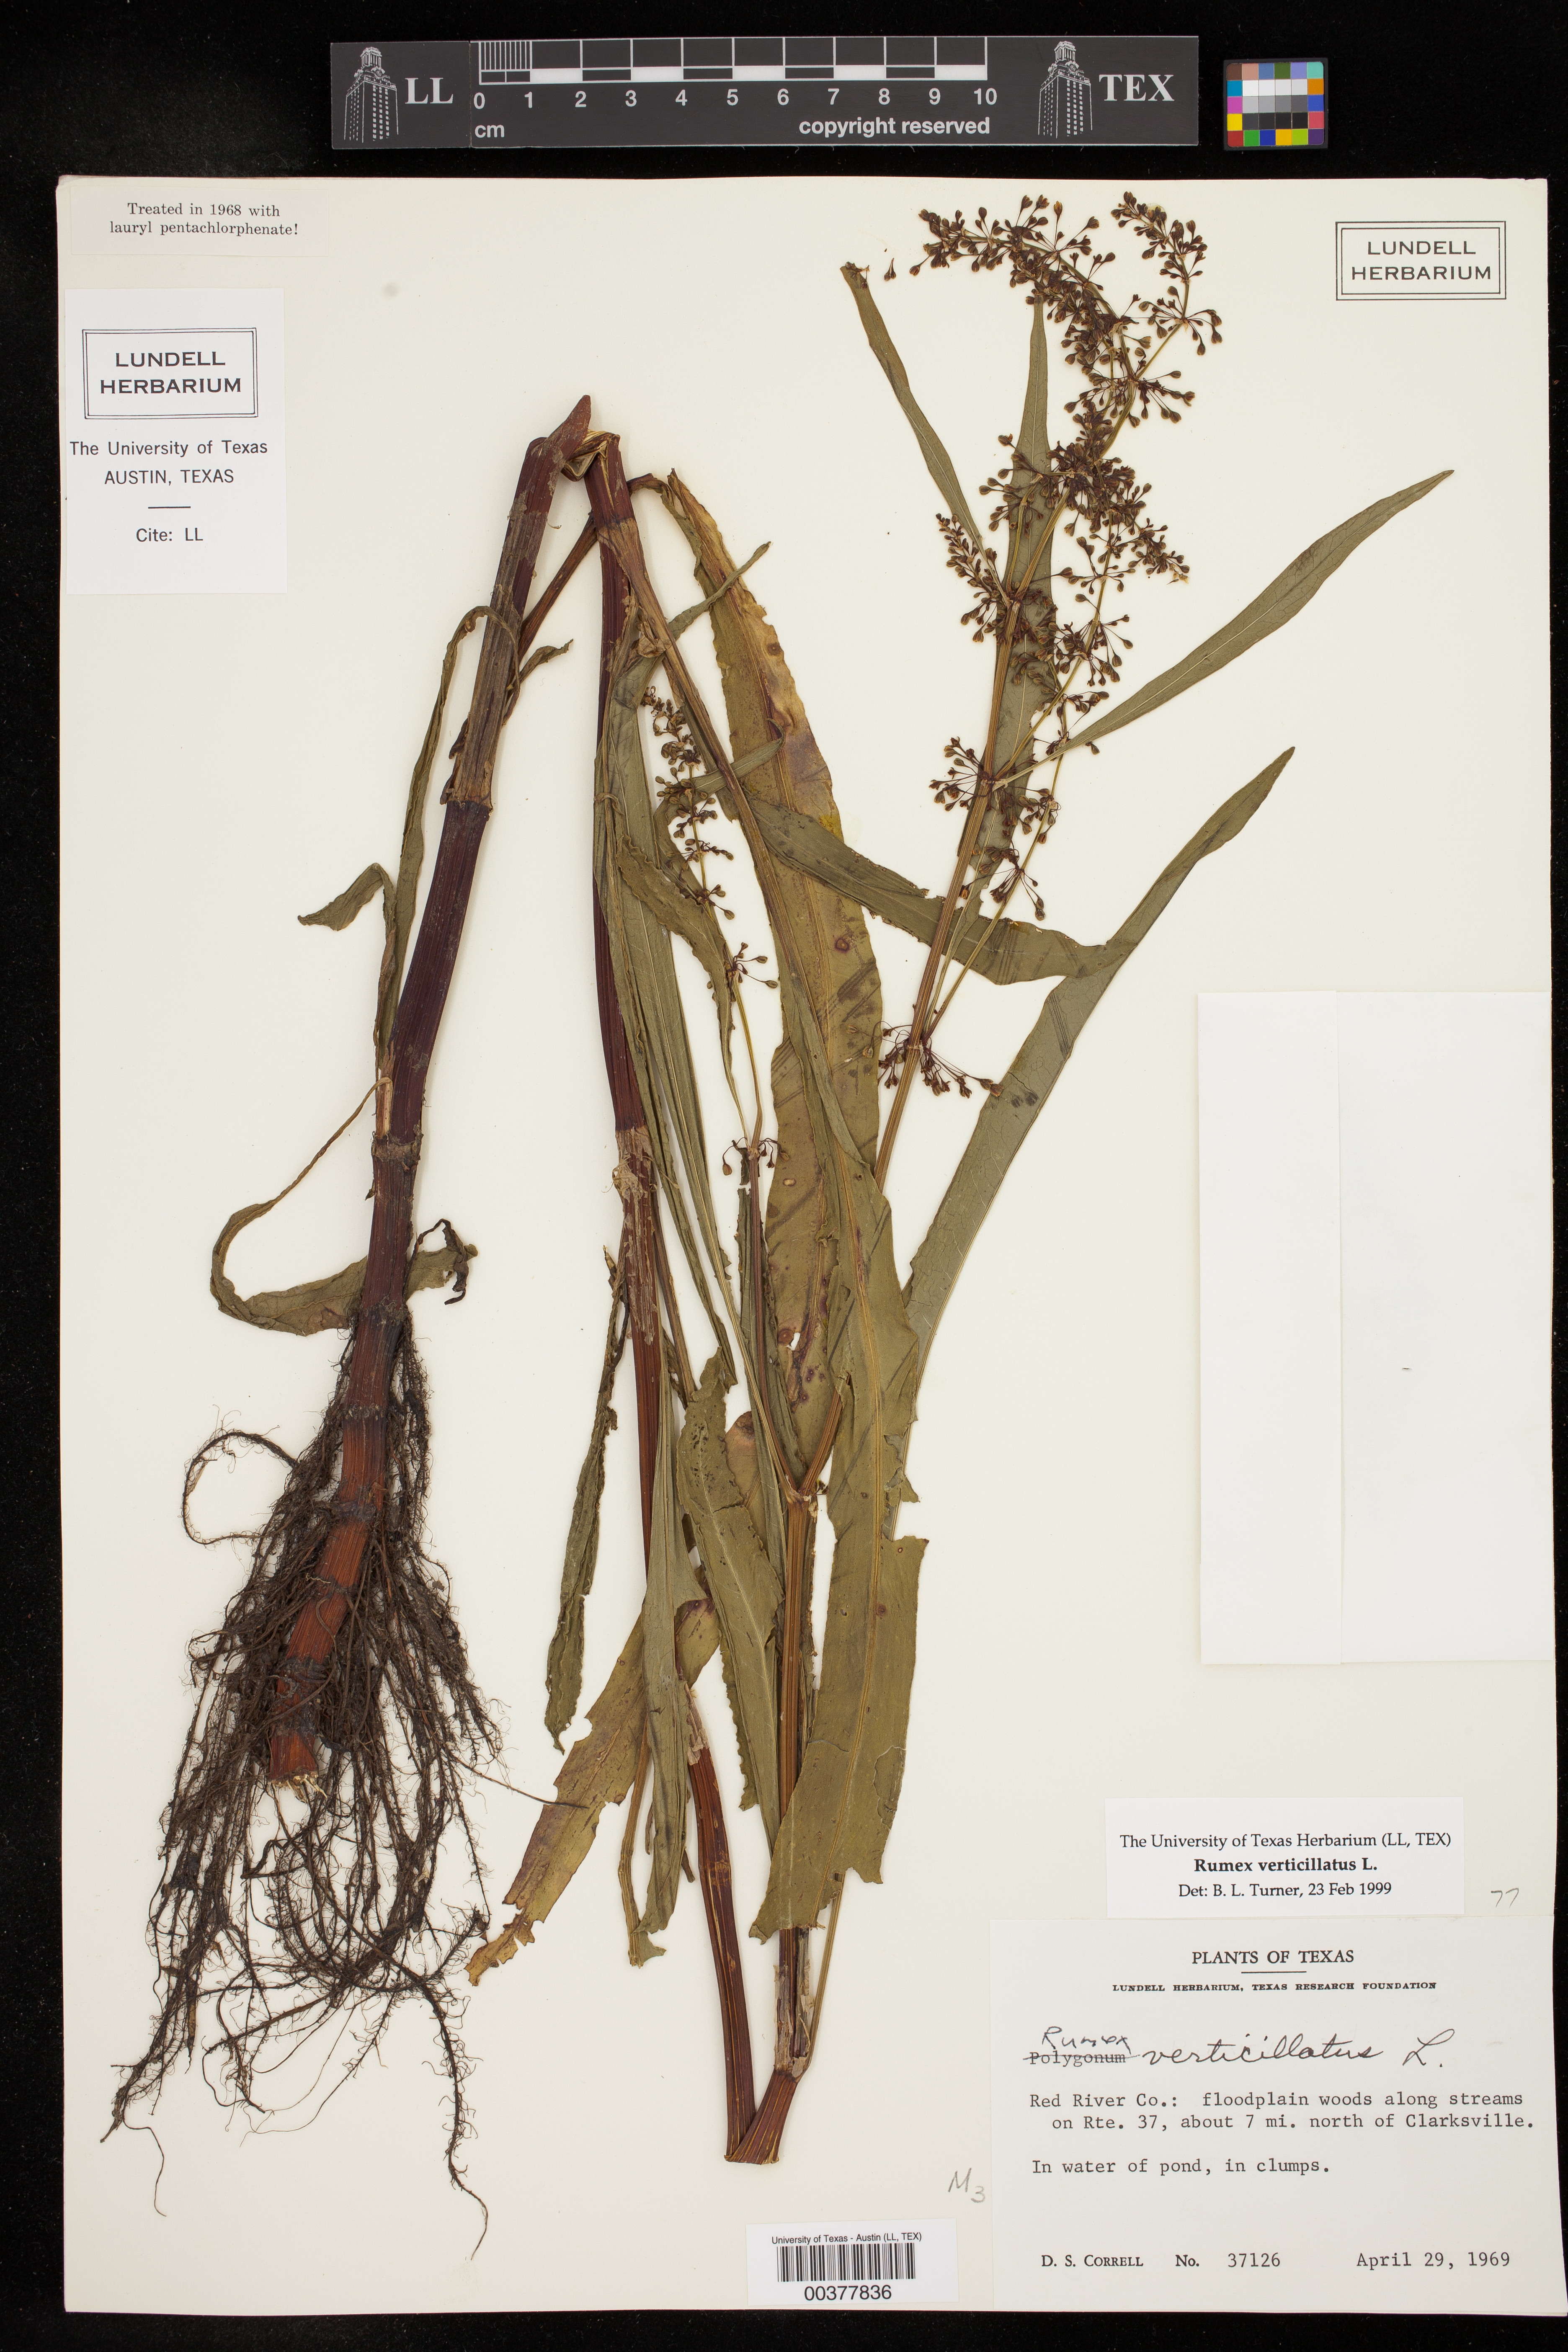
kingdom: Plantae
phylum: Tracheophyta
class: Magnoliopsida
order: Caryophyllales
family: Polygonaceae
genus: Rumex
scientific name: Rumex verticillatus
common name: Swamp dock
